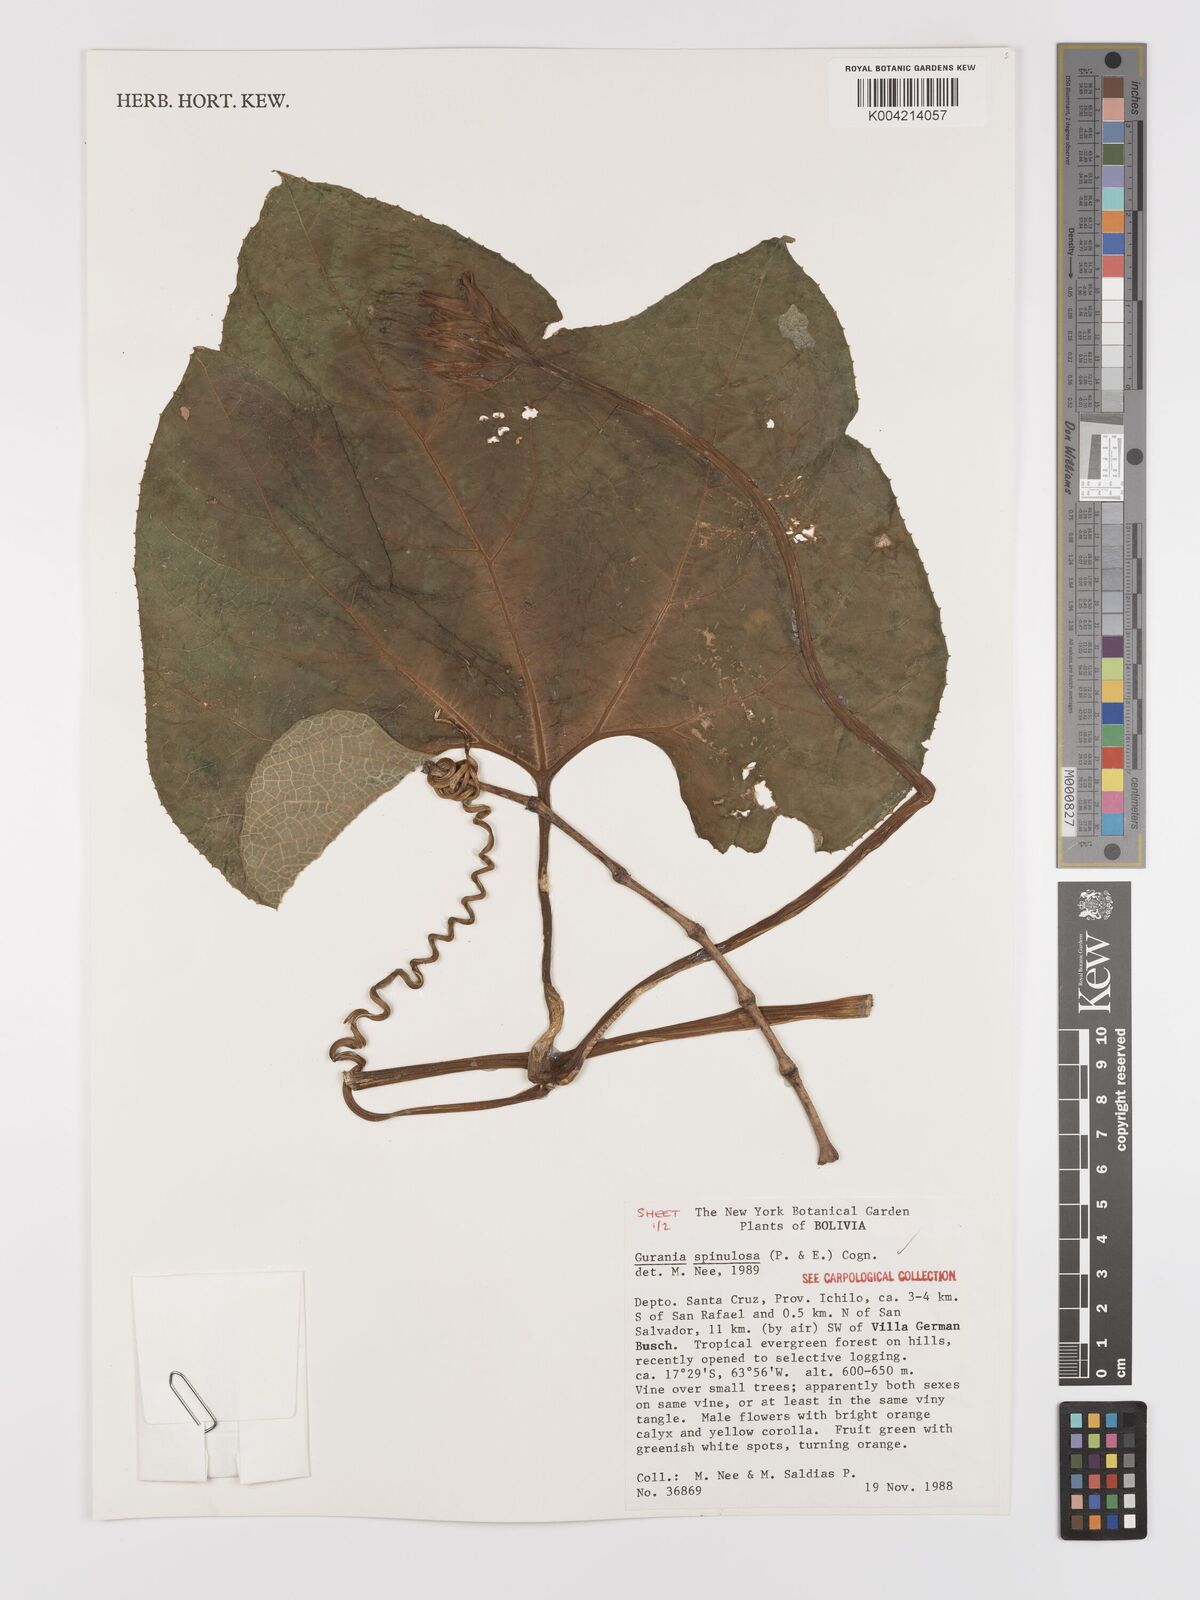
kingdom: Plantae
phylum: Tracheophyta
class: Magnoliopsida
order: Cucurbitales
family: Cucurbitaceae
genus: Gurania
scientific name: Gurania lobata
